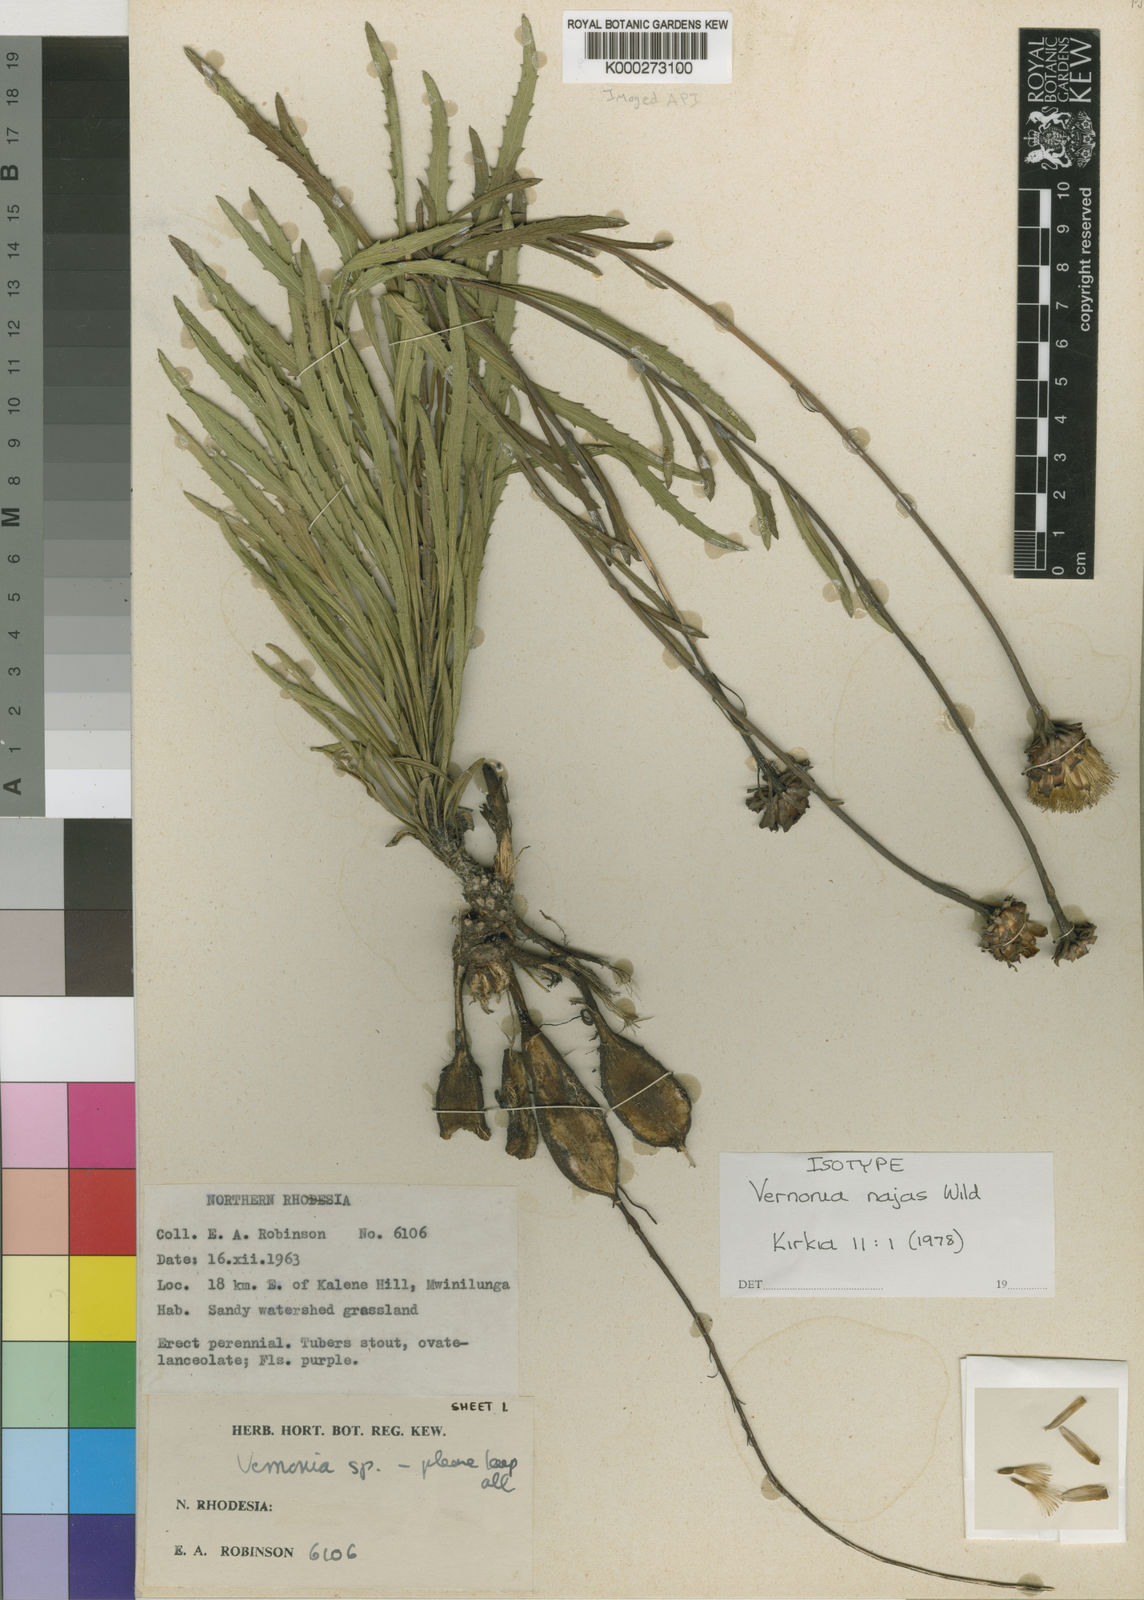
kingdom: Plantae
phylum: Tracheophyta
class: Magnoliopsida
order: Asterales
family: Asteraceae
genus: Vernonia
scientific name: Vernonia najas
